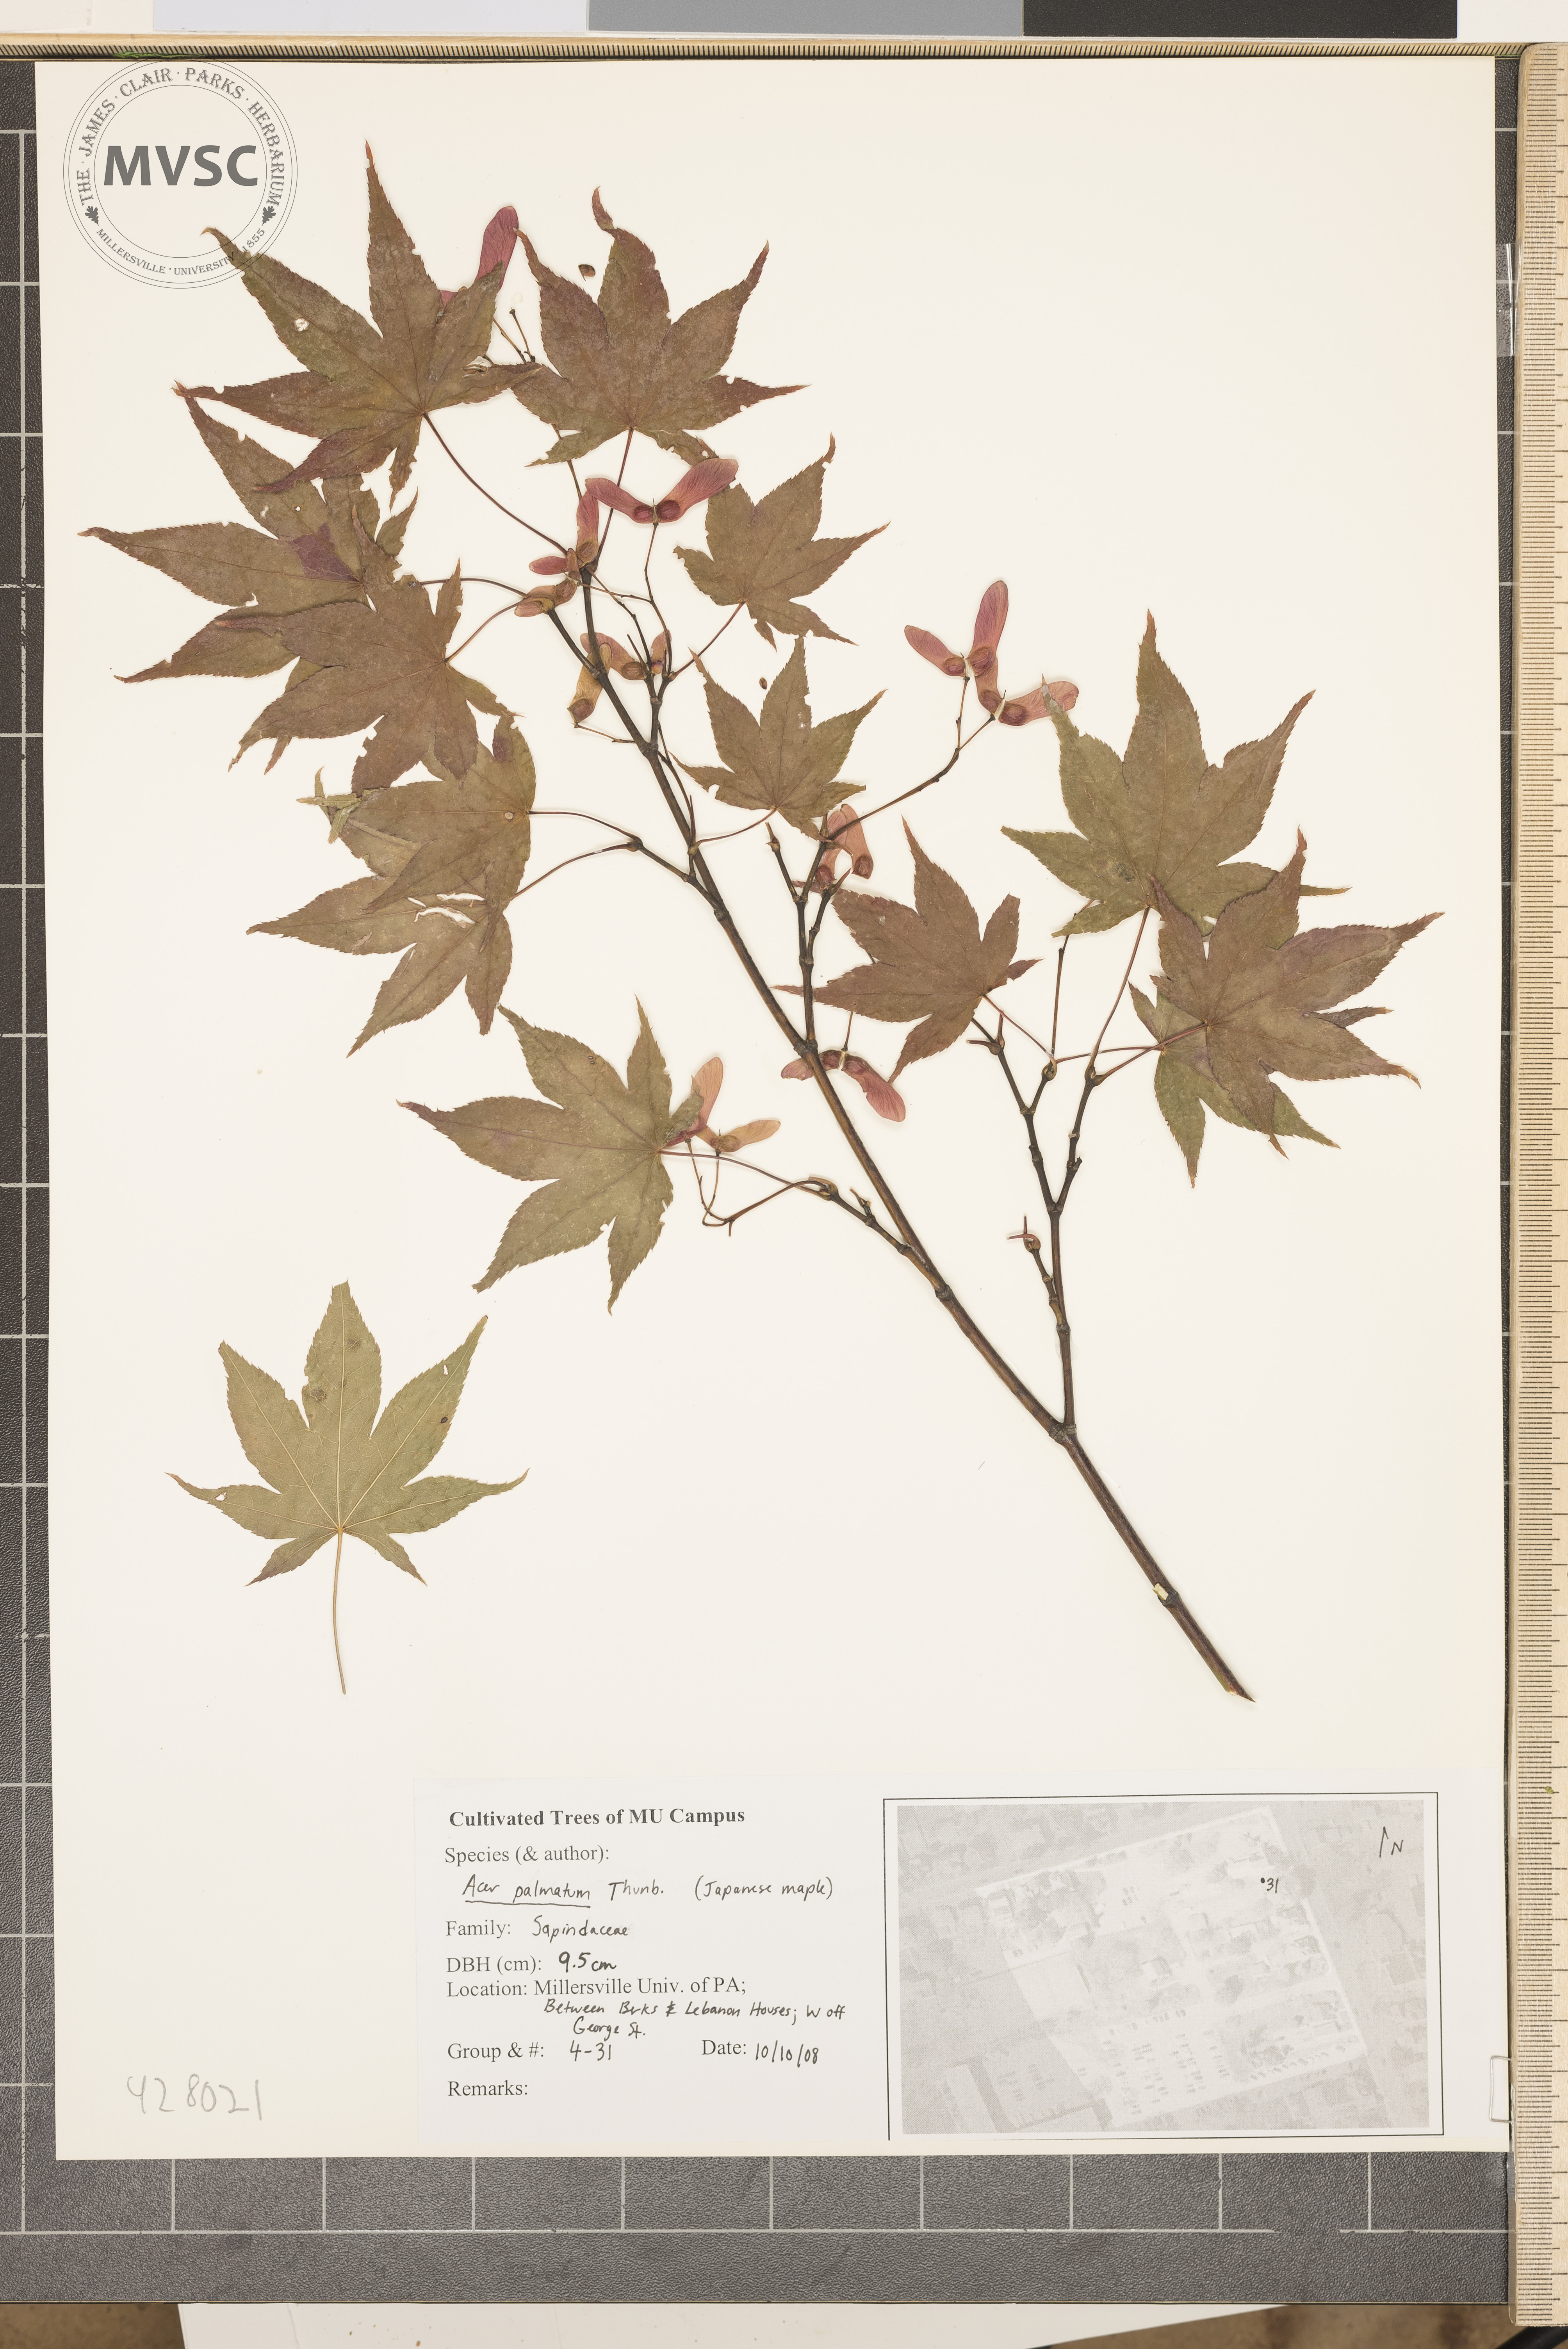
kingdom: Plantae
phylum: Tracheophyta
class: Magnoliopsida
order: Sapindales
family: Sapindaceae
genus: Acer
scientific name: Acer palmatum
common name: Japanese Maple
